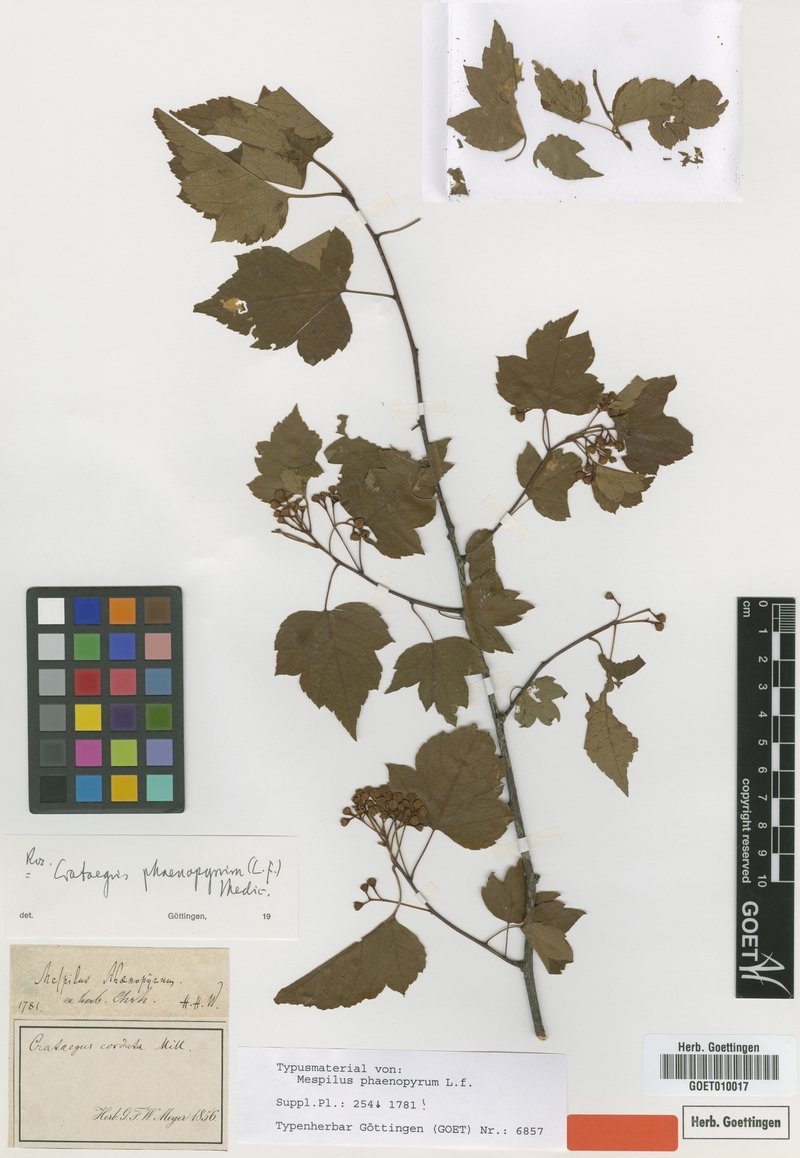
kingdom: Plantae
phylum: Tracheophyta
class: Magnoliopsida
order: Rosales
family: Rosaceae
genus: Crataegus
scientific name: Crataegus phaenopyrum
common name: Washington hawthorn
